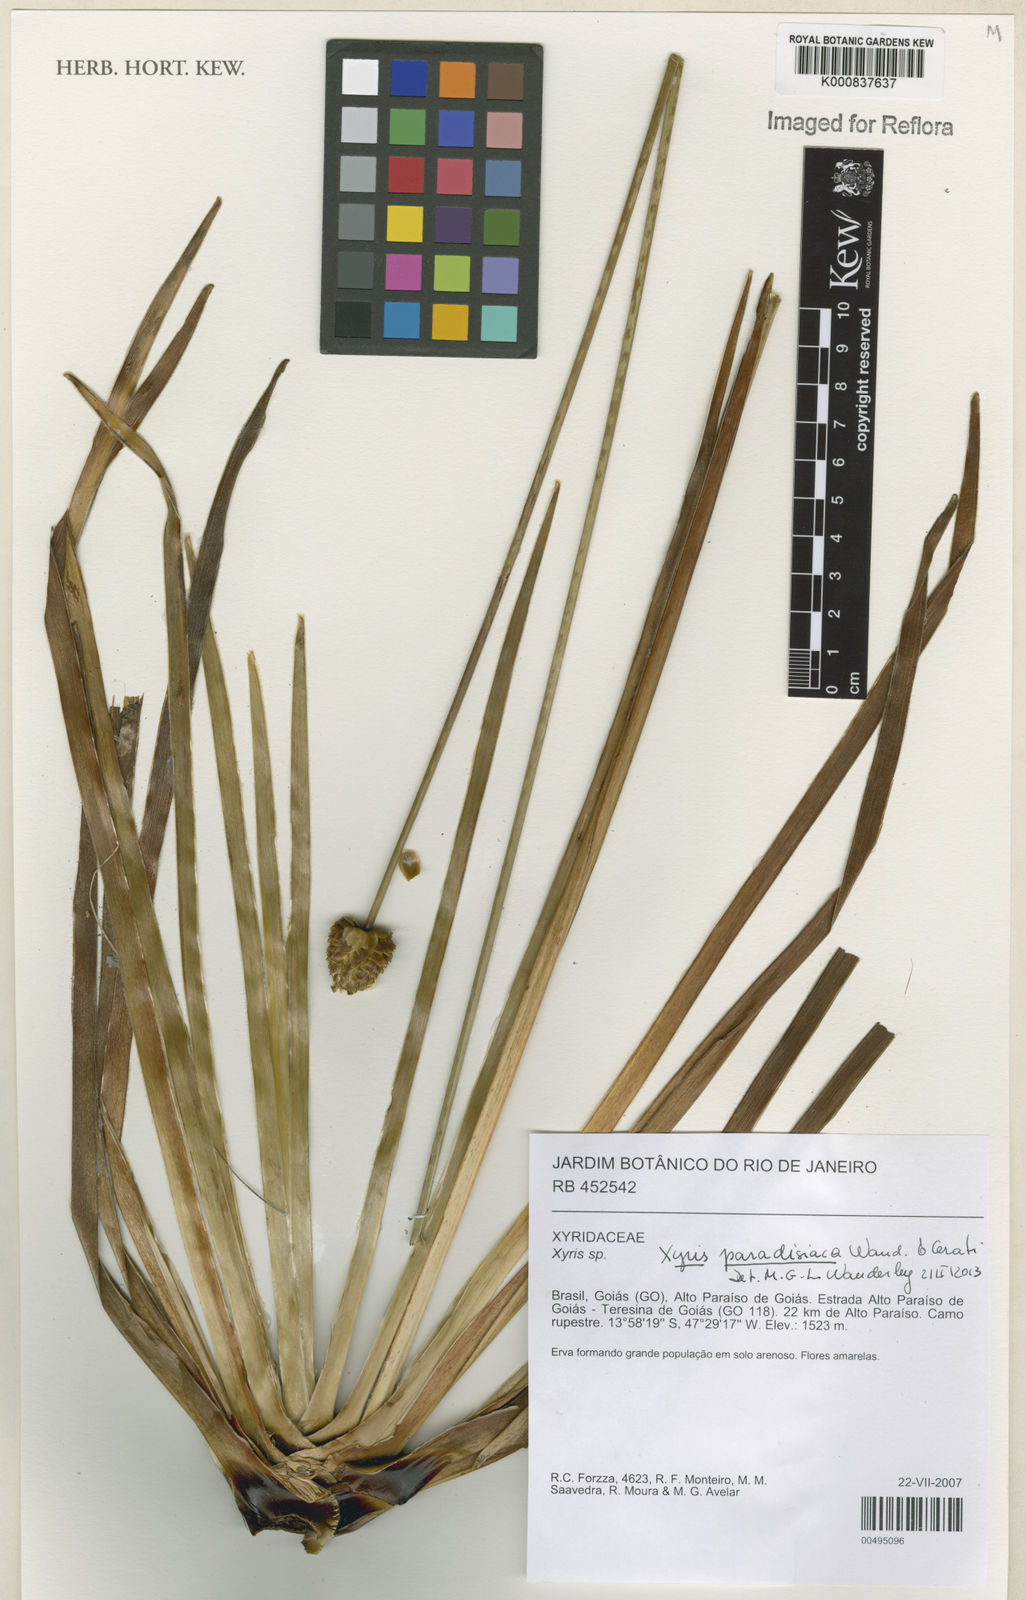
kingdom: Plantae
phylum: Tracheophyta
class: Liliopsida
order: Poales
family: Xyridaceae
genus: Xyris
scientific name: Xyris
